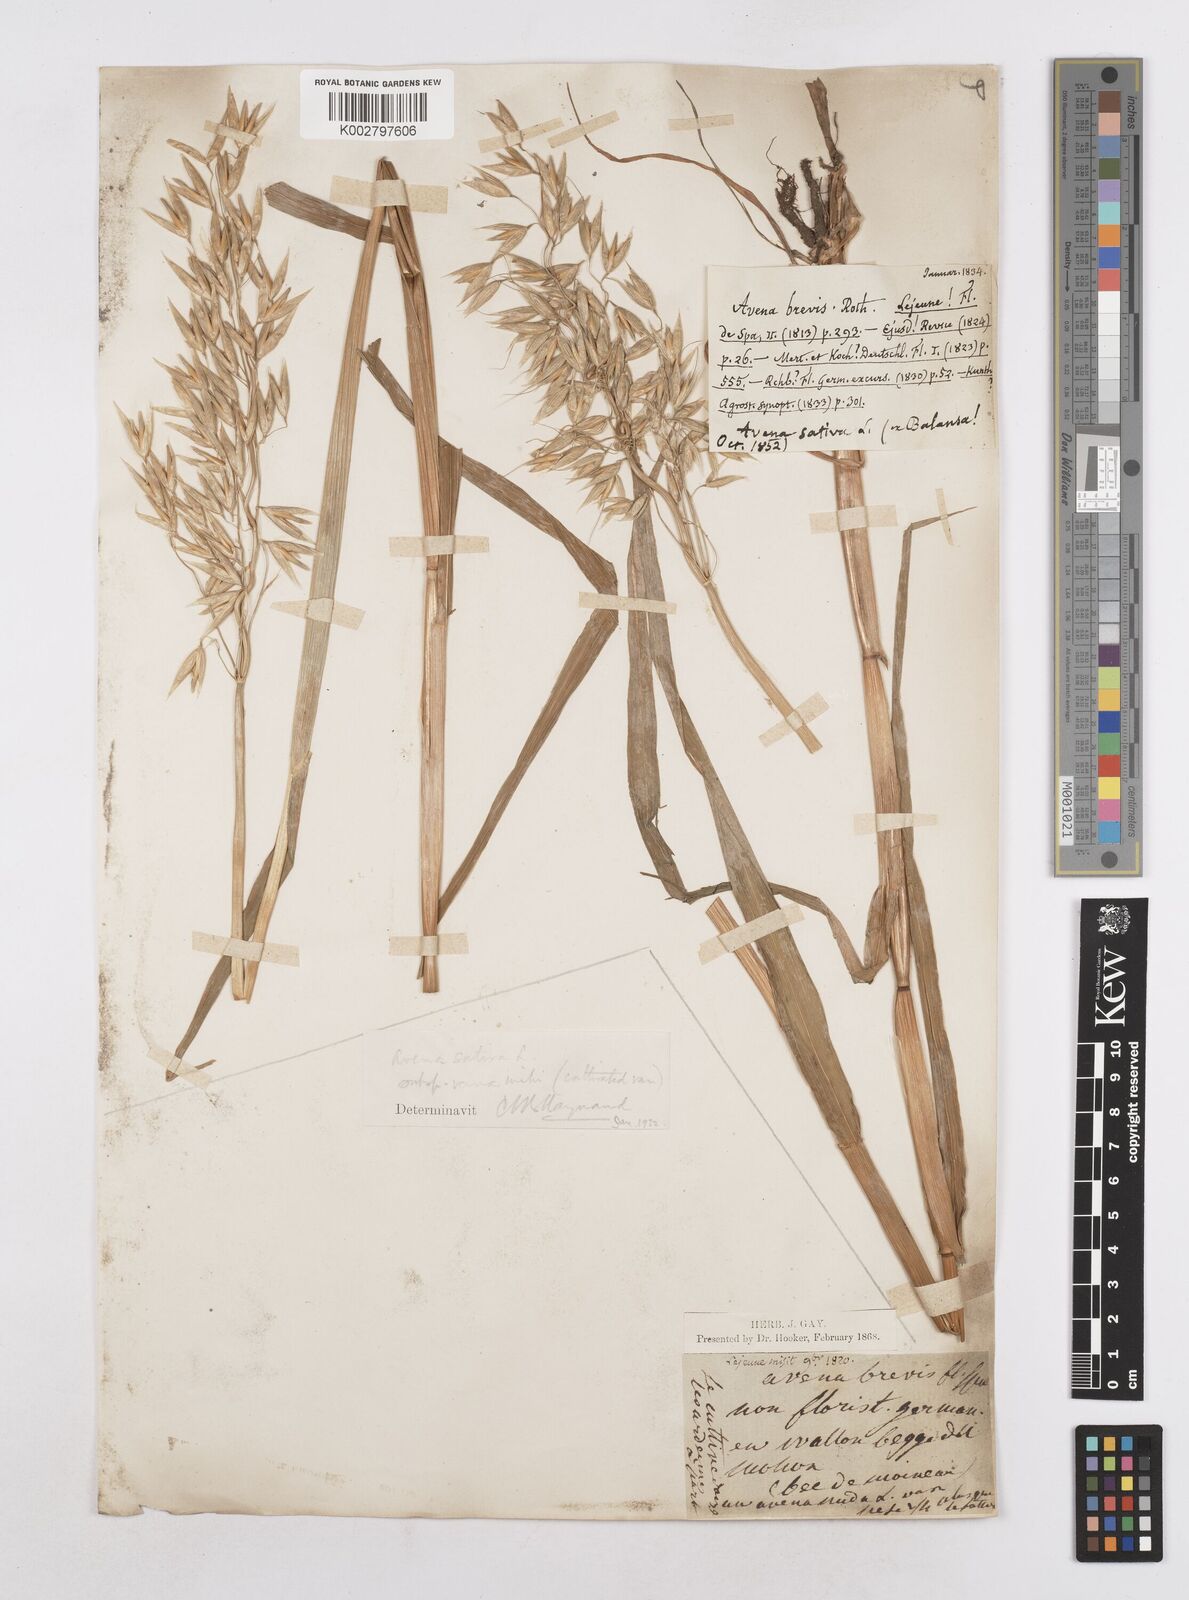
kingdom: Plantae
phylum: Tracheophyta
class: Liliopsida
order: Poales
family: Poaceae
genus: Avena
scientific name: Avena sativa
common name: Oat
